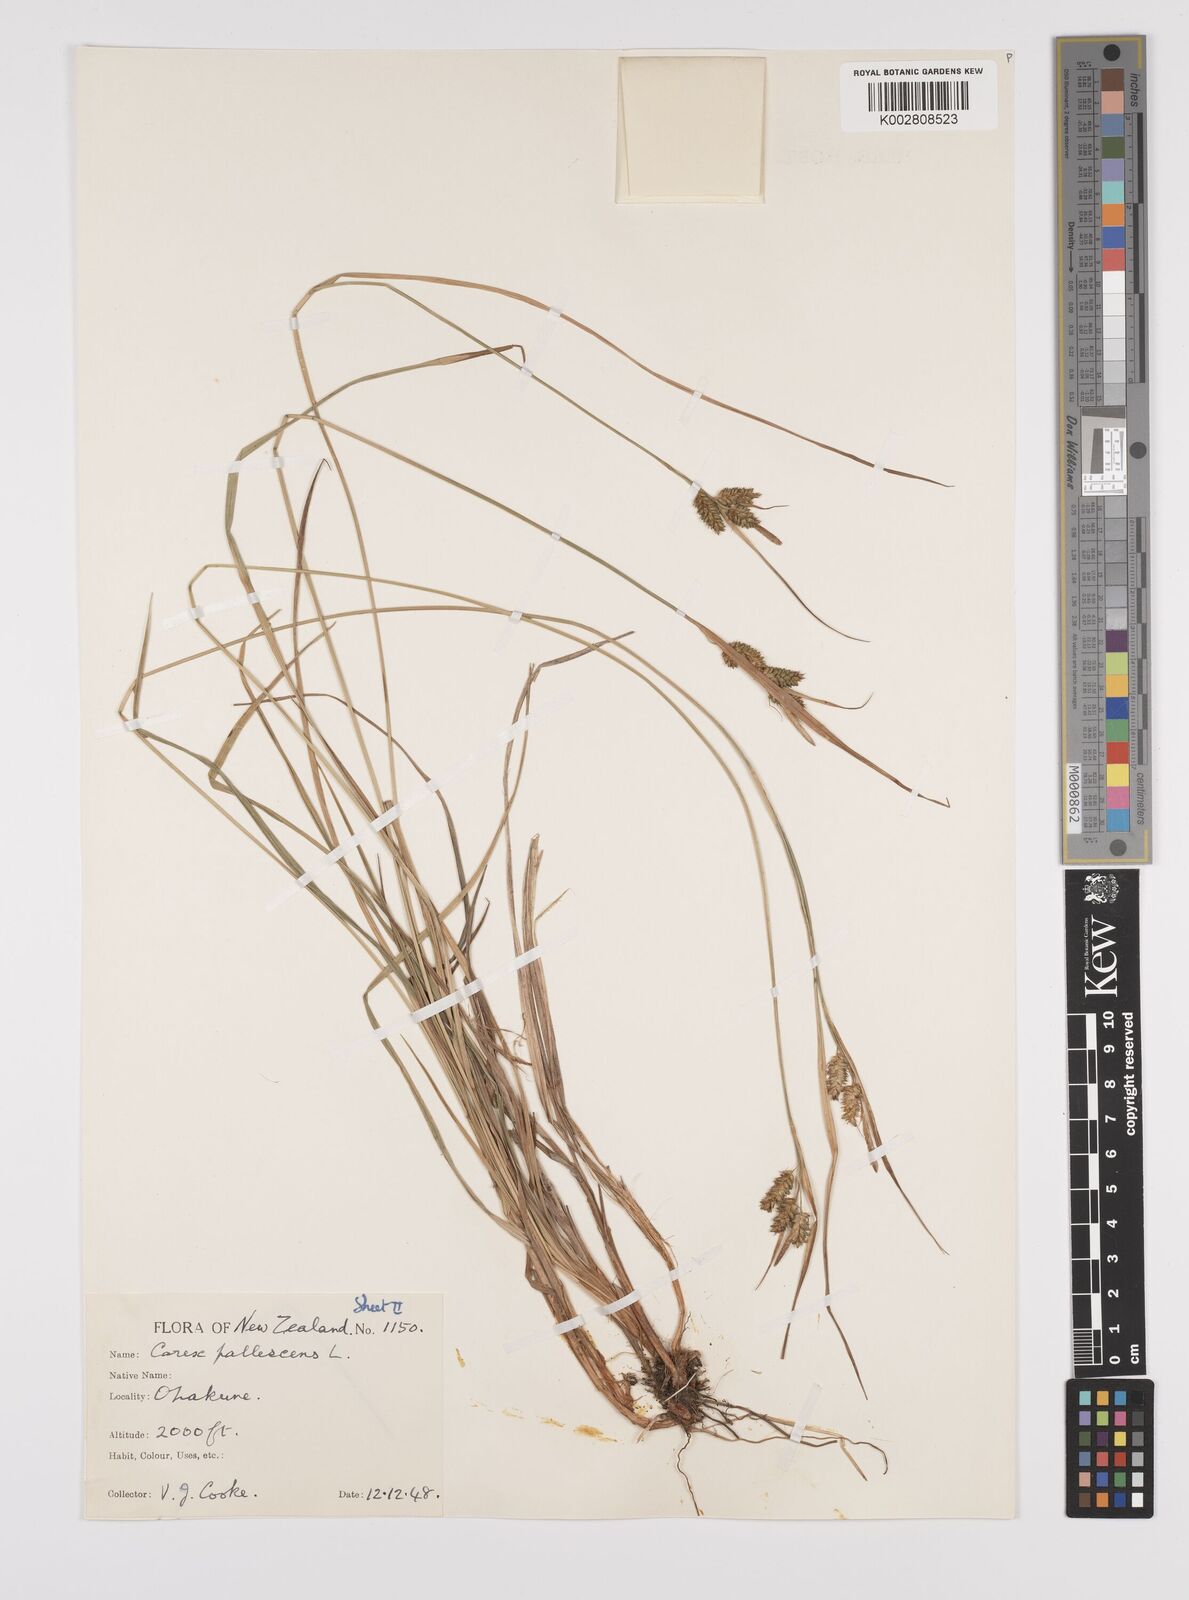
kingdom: Plantae
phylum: Tracheophyta
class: Liliopsida
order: Poales
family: Cyperaceae
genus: Carex
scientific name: Carex pallescens
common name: Pale sedge
